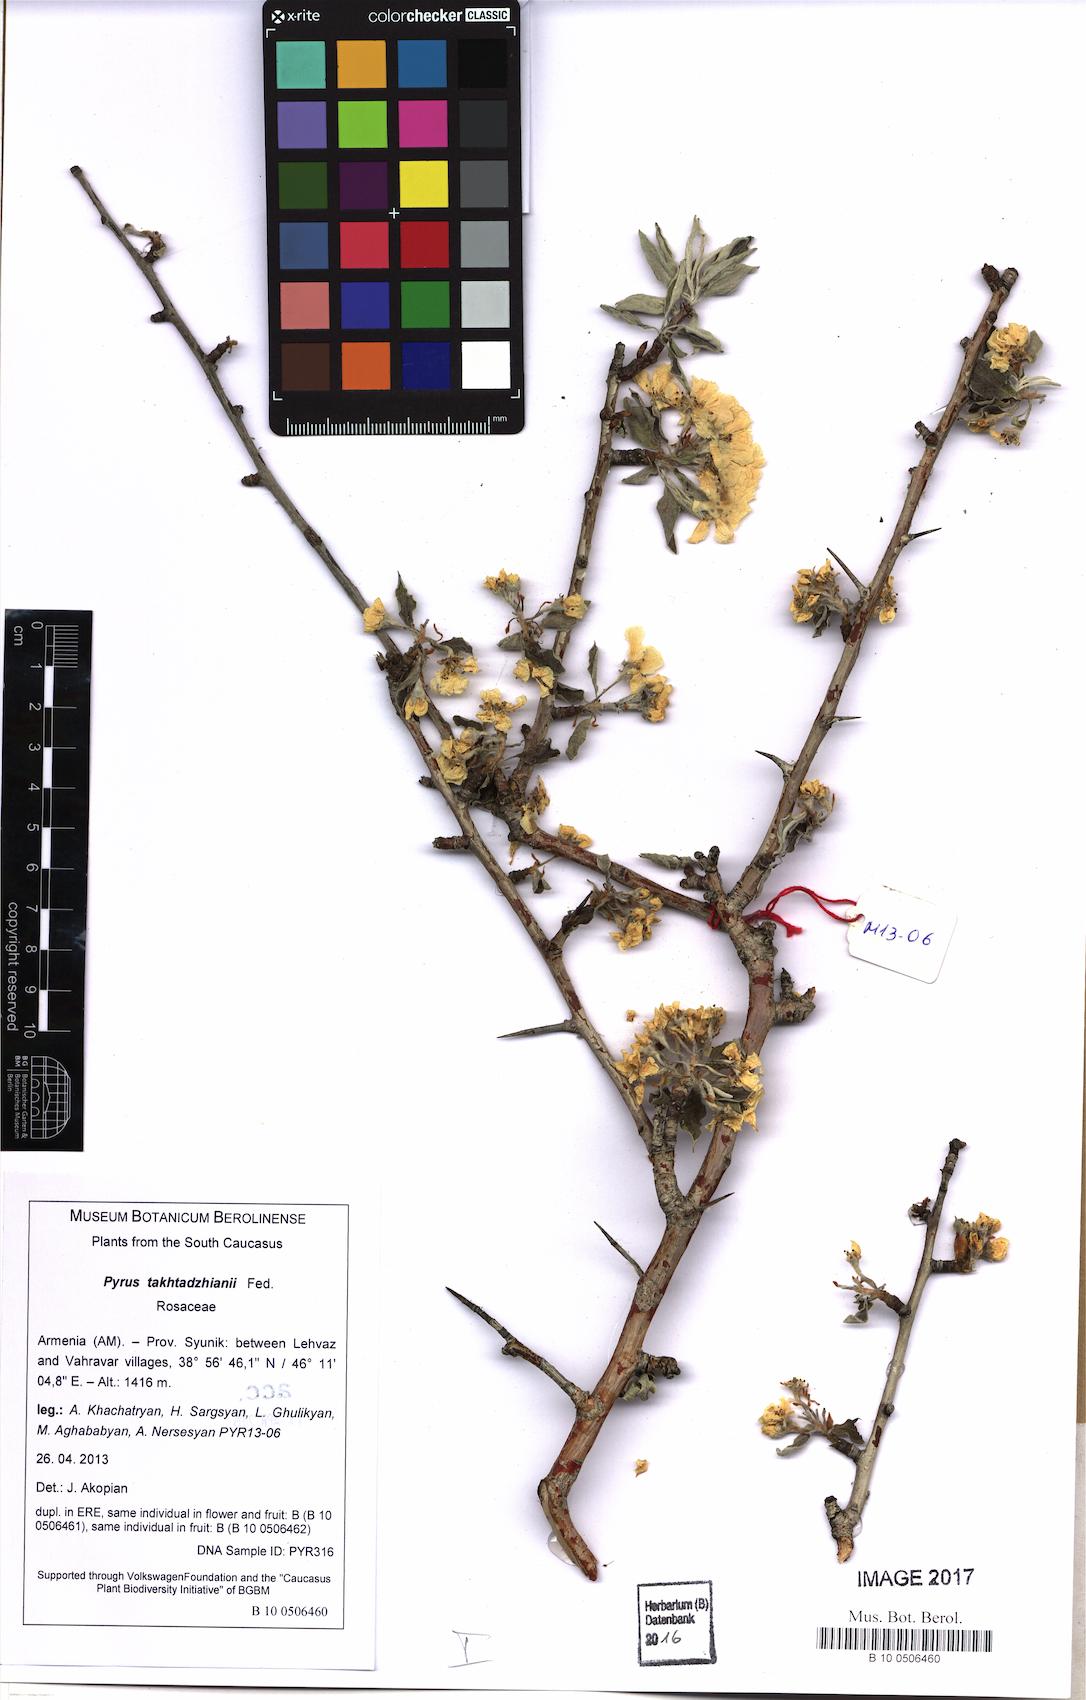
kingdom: Plantae
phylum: Tracheophyta
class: Magnoliopsida
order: Rosales
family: Rosaceae
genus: Pyrus
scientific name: Pyrus takhtadzhianii
